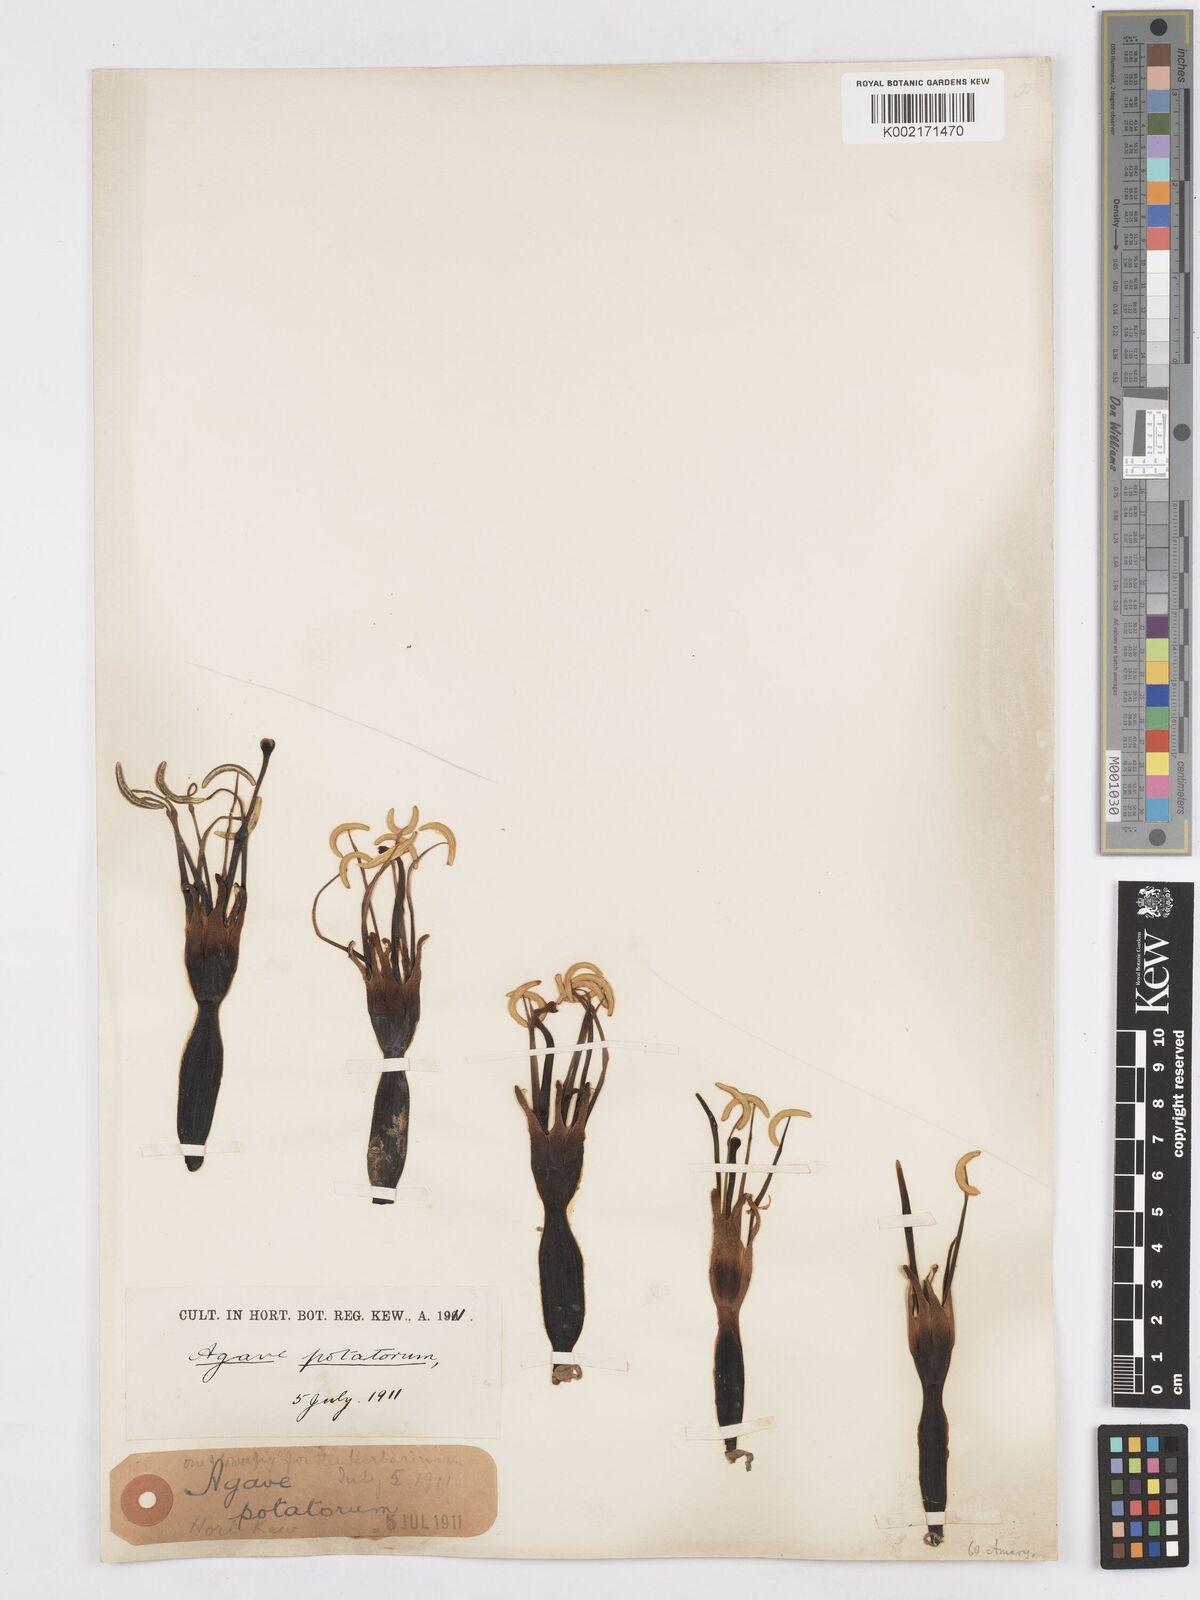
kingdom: Plantae
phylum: Tracheophyta
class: Liliopsida
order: Asparagales
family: Asparagaceae
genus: Agave
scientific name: Agave potatorum
